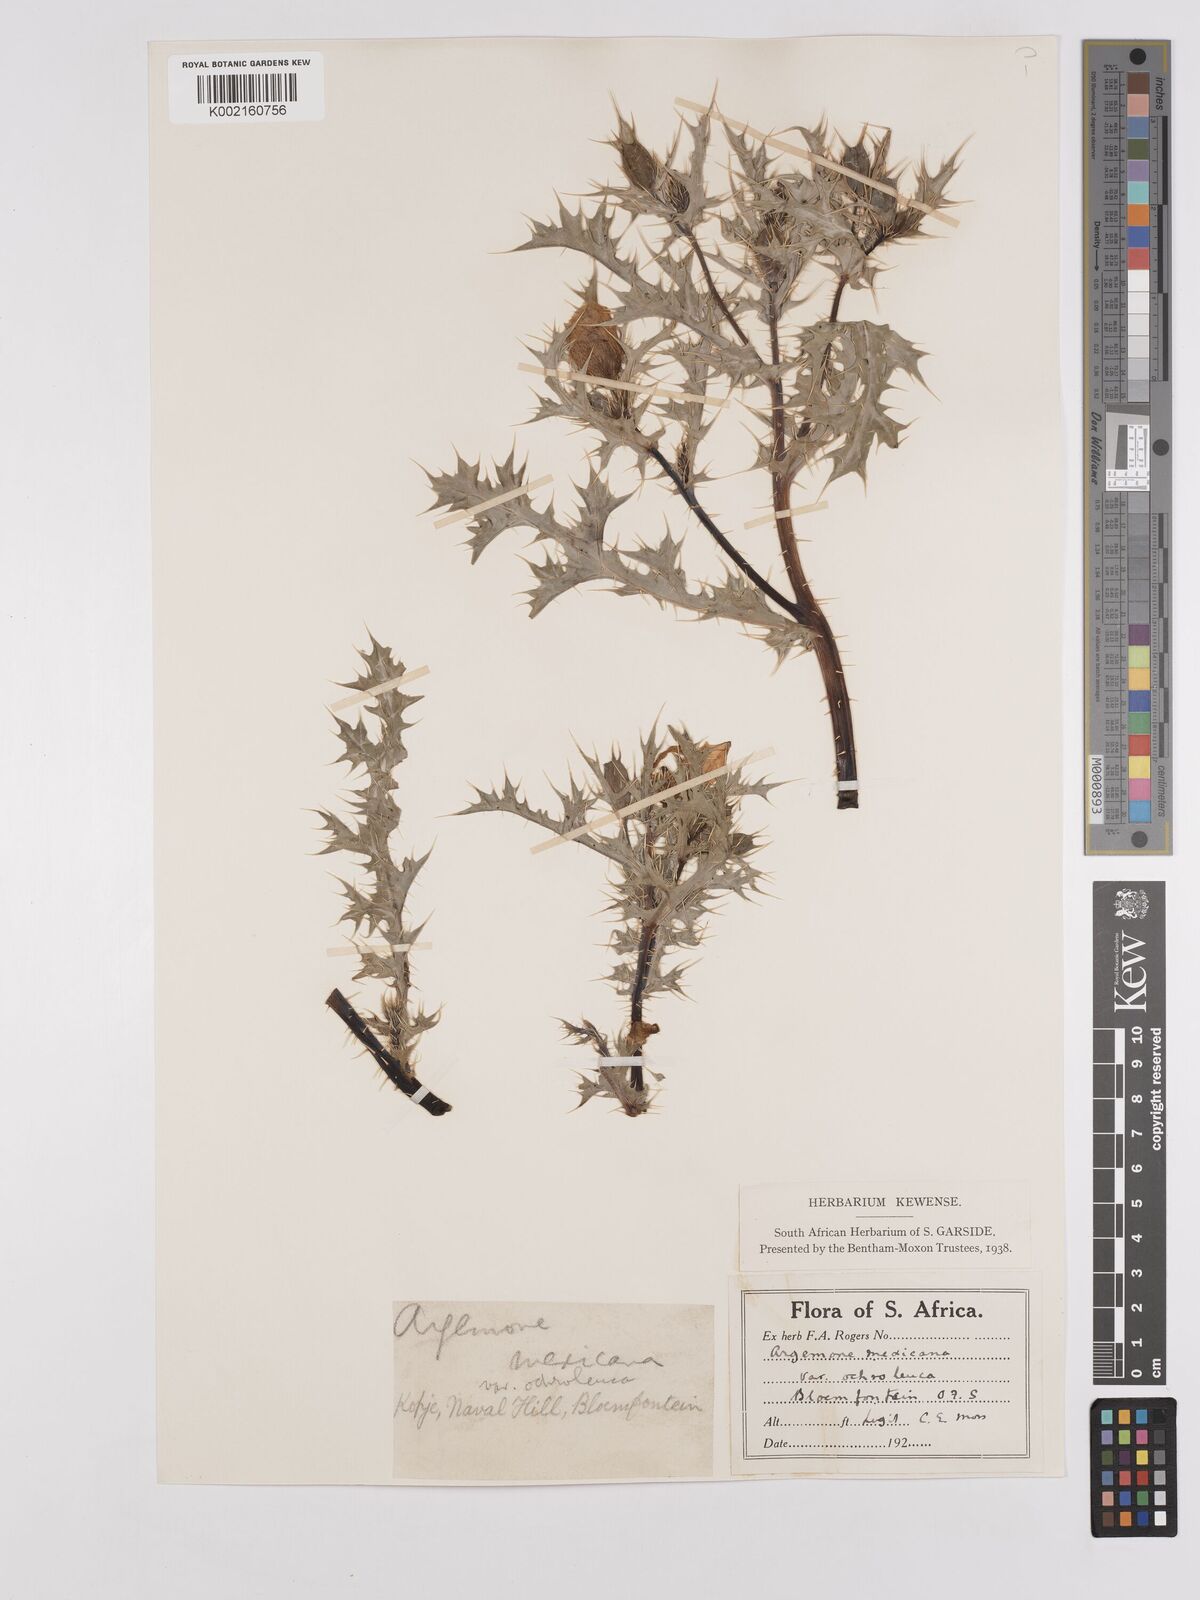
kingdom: Plantae
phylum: Tracheophyta
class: Magnoliopsida
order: Ranunculales
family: Papaveraceae
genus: Argemone
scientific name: Argemone mexicana
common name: Mexican poppy
